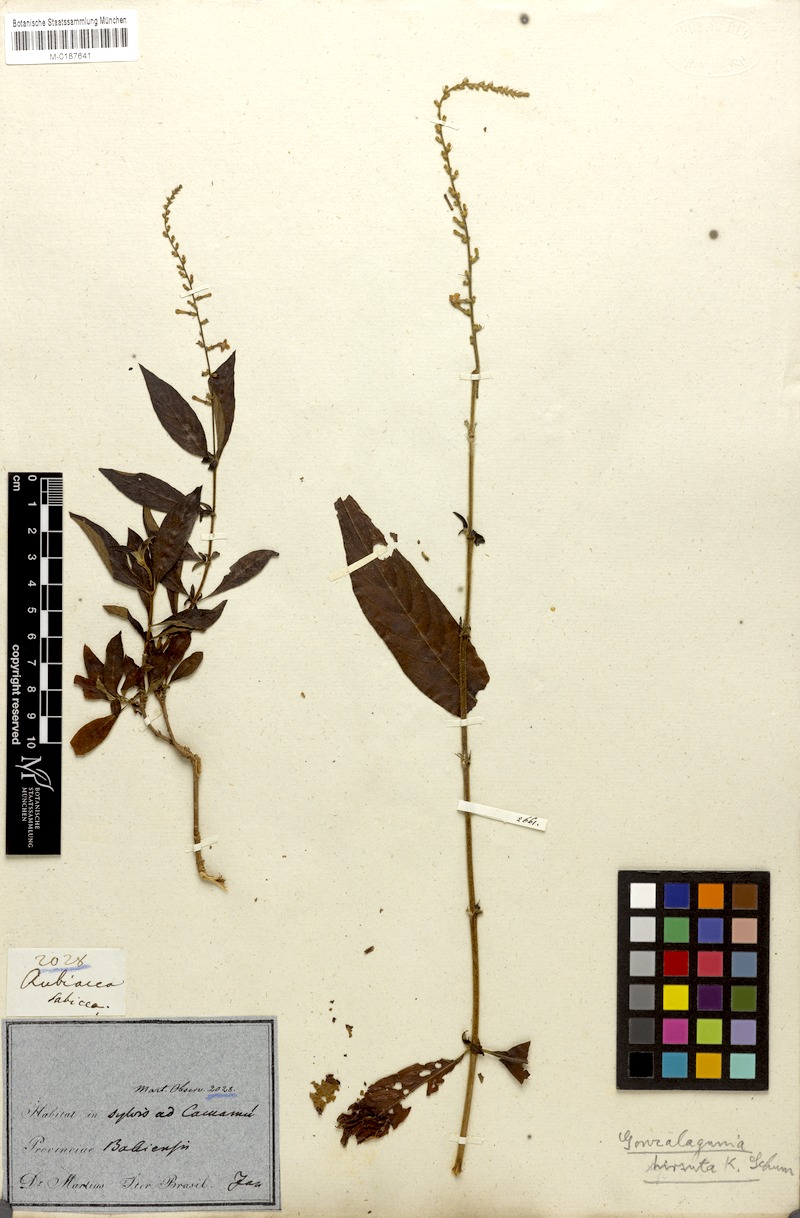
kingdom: Plantae
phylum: Tracheophyta
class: Magnoliopsida
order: Gentianales
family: Rubiaceae
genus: Gonzalagunia
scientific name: Gonzalagunia dicocca
